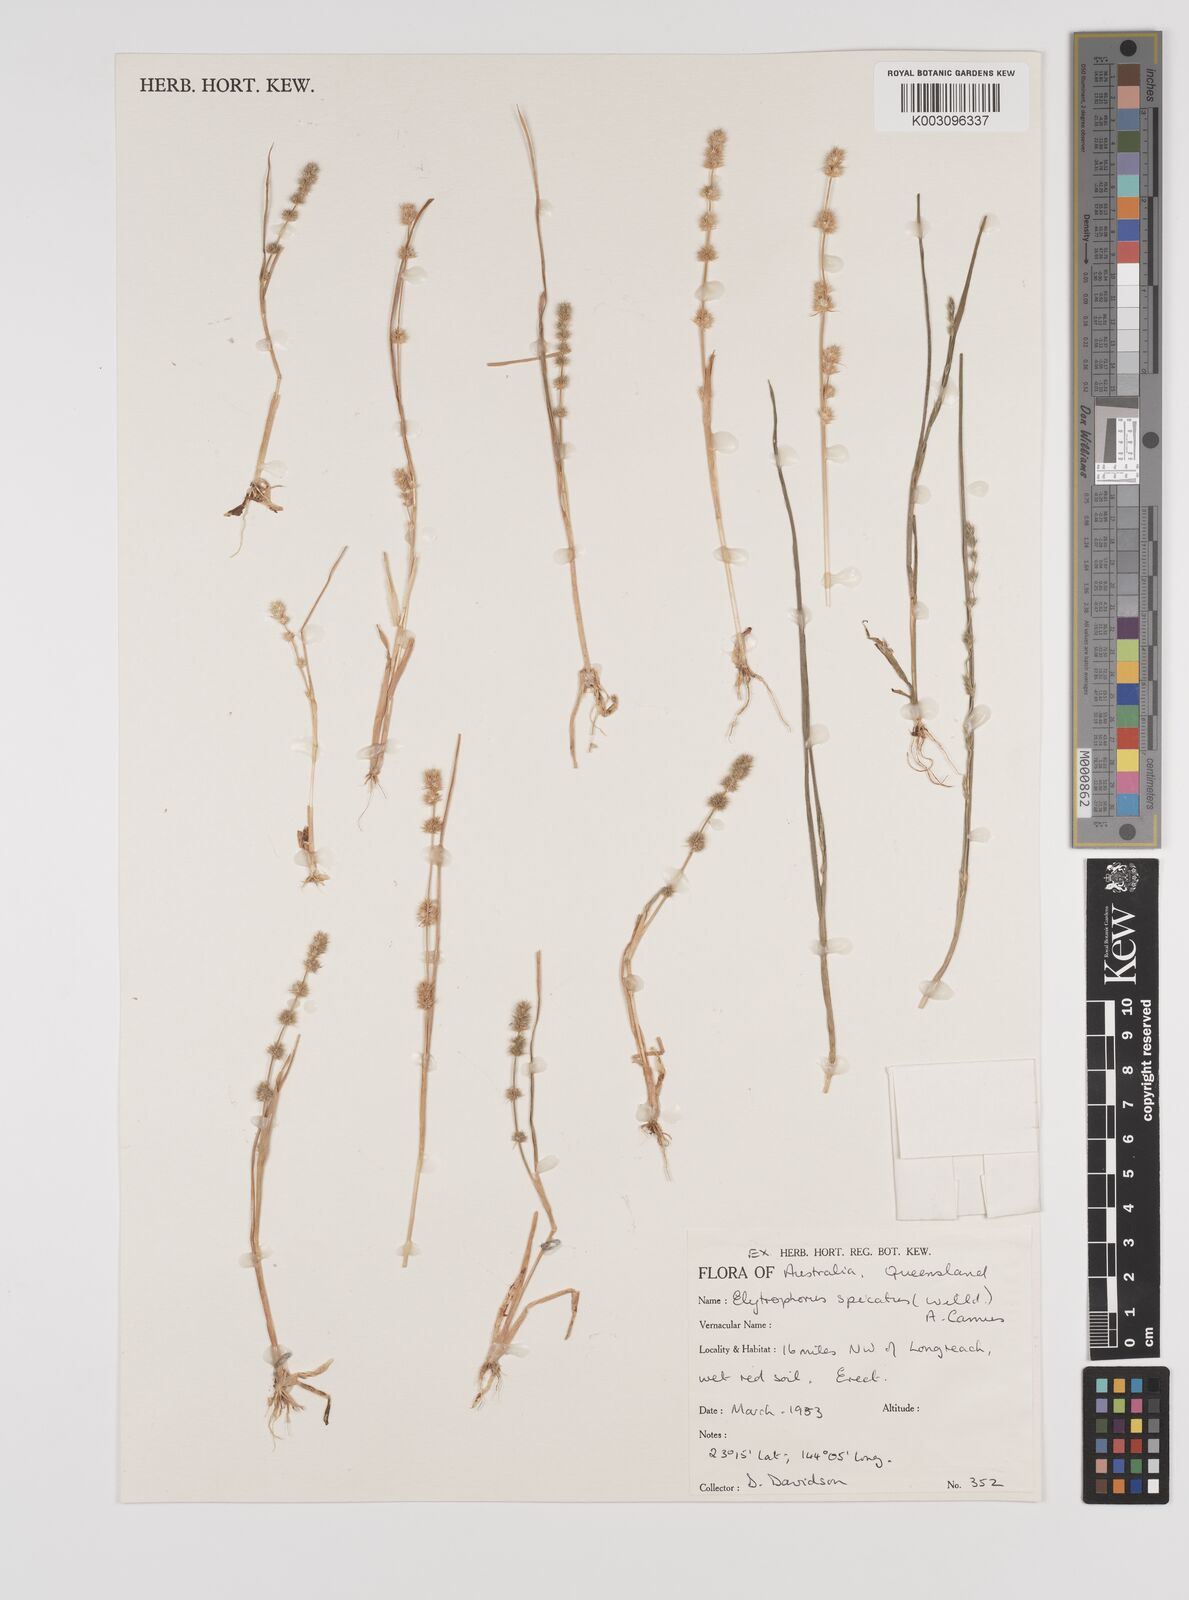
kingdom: Plantae
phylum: Tracheophyta
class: Liliopsida
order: Poales
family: Poaceae
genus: Elytrophorus
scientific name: Elytrophorus spicatus
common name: Spike grass
